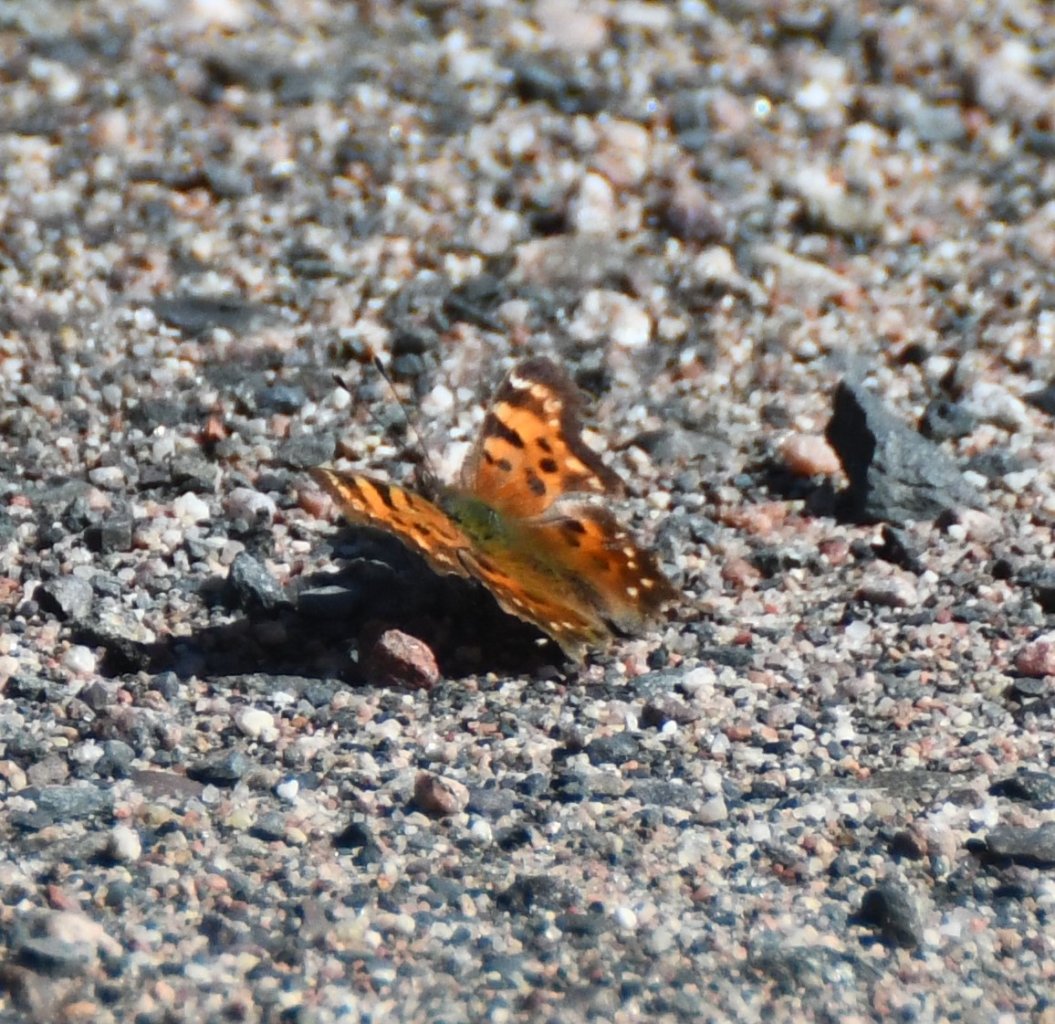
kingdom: Animalia
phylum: Arthropoda
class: Insecta
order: Lepidoptera
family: Nymphalidae
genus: Polygonia
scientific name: Polygonia faunus
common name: Green Comma
